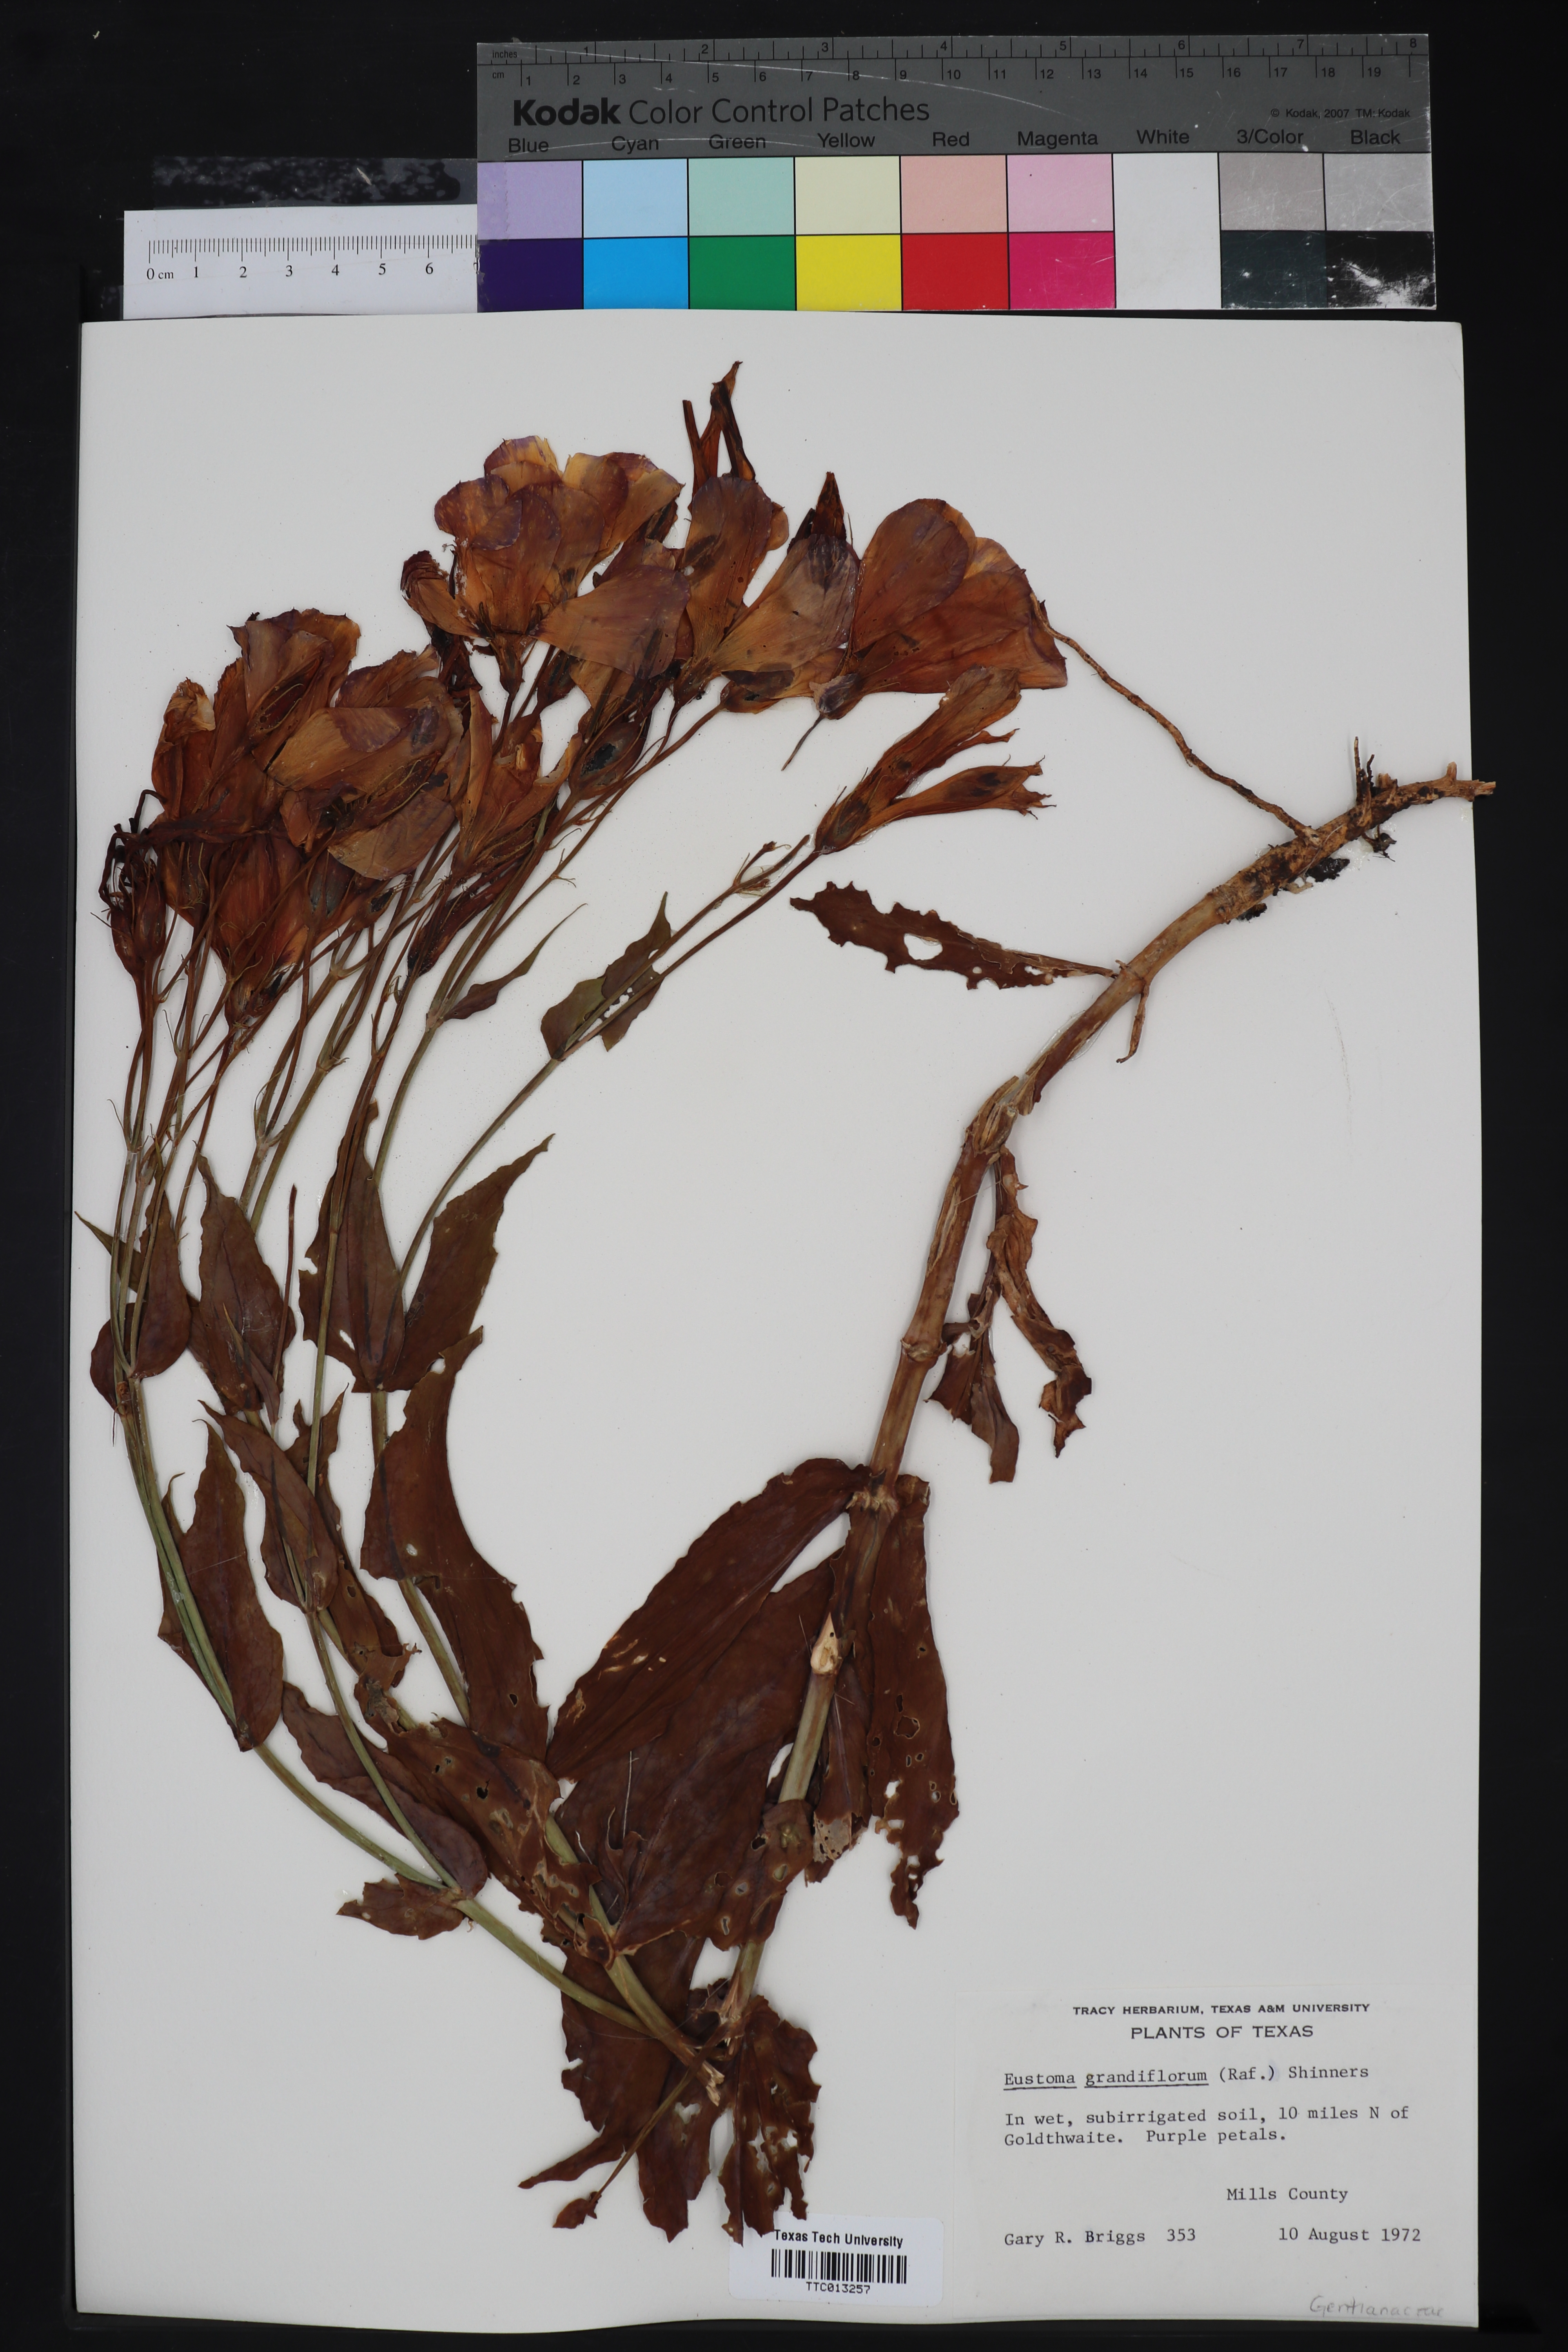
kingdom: Plantae
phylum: Tracheophyta
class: Magnoliopsida
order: Gentianales
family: Gentianaceae
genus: Eustoma
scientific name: Eustoma russellianum
